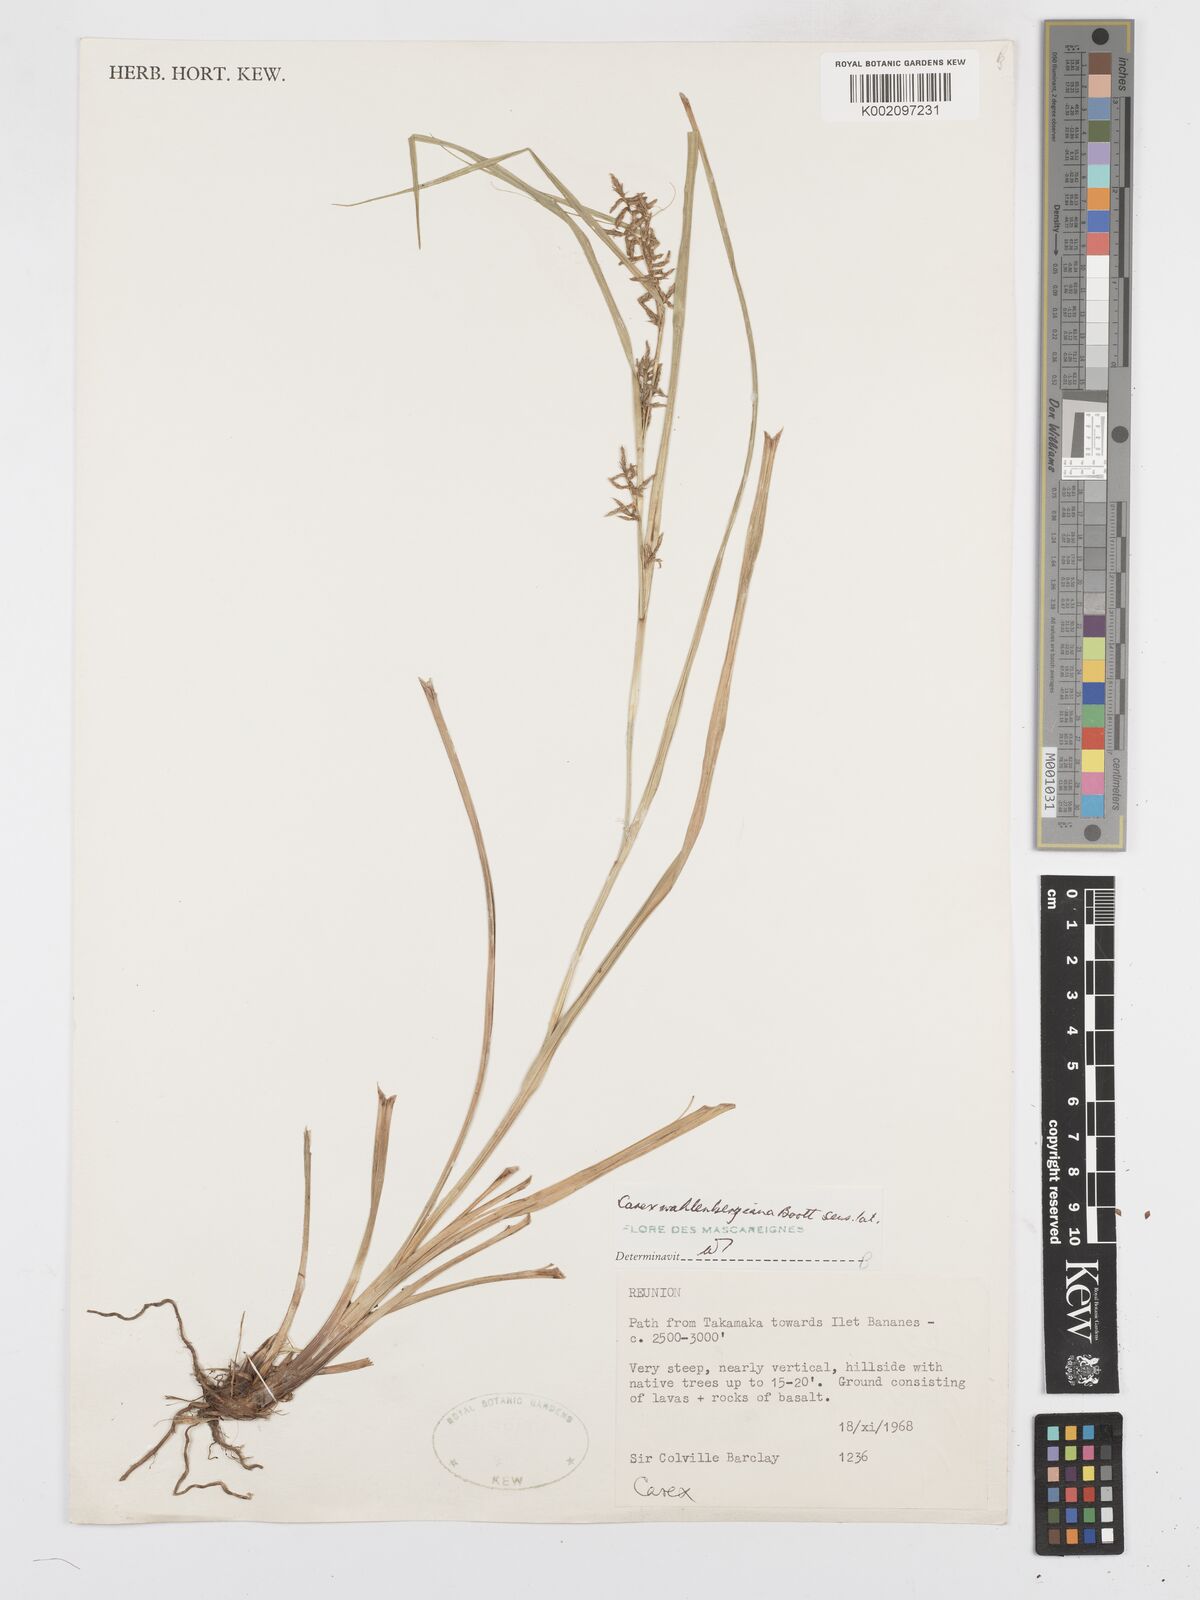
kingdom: Plantae
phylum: Tracheophyta
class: Liliopsida
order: Poales
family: Cyperaceae
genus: Carex
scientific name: Carex wahlenbergiana
